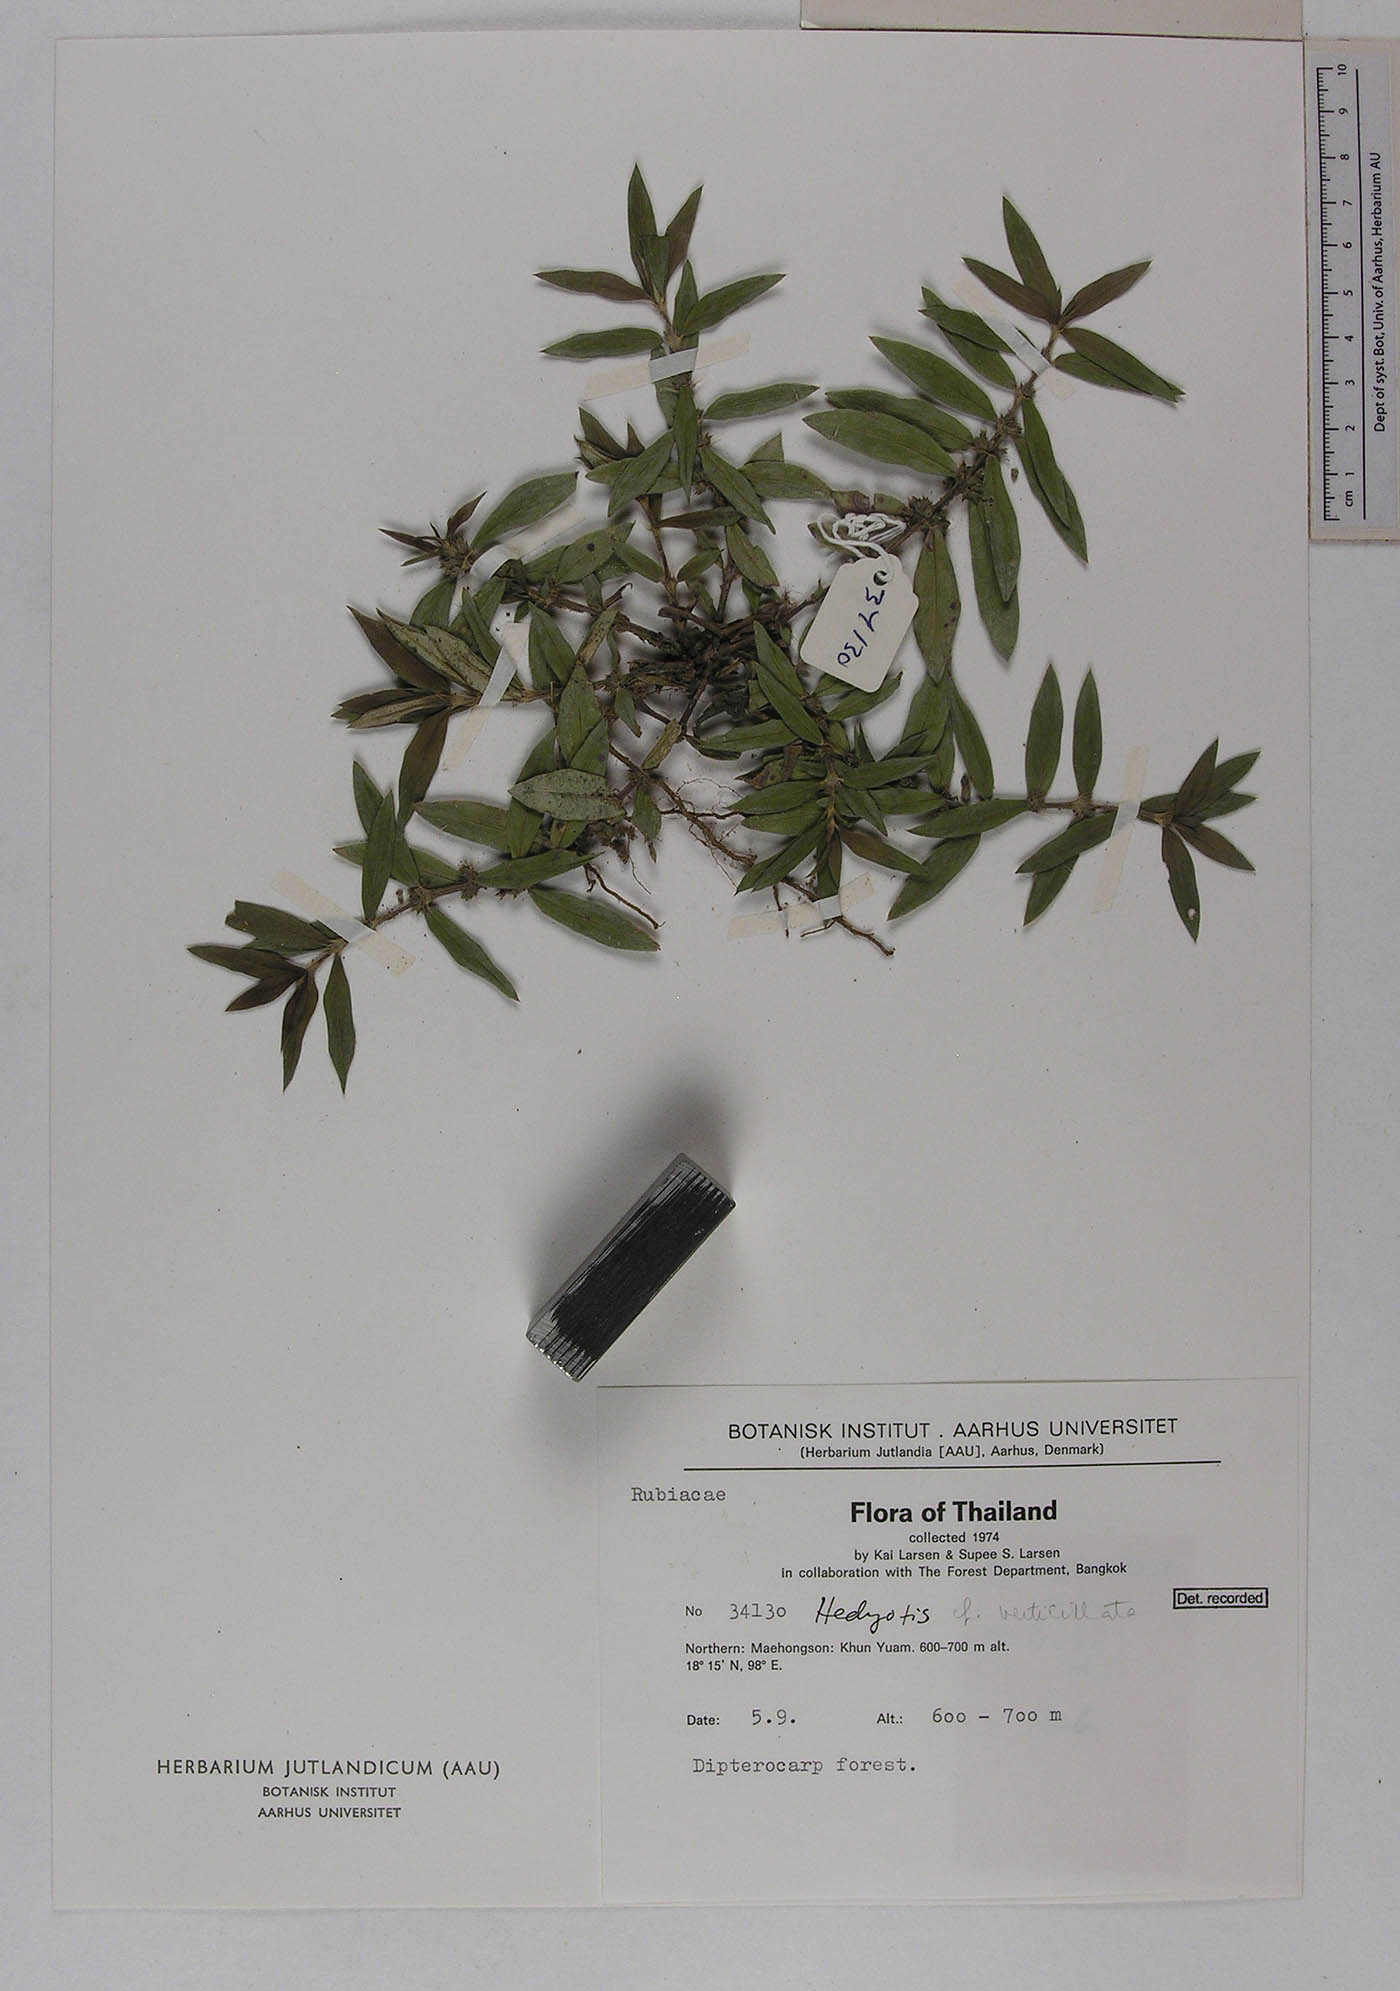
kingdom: Plantae
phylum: Tracheophyta
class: Magnoliopsida
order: Gentianales
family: Rubiaceae
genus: Scleromitrion
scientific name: Scleromitrion verticillatum
